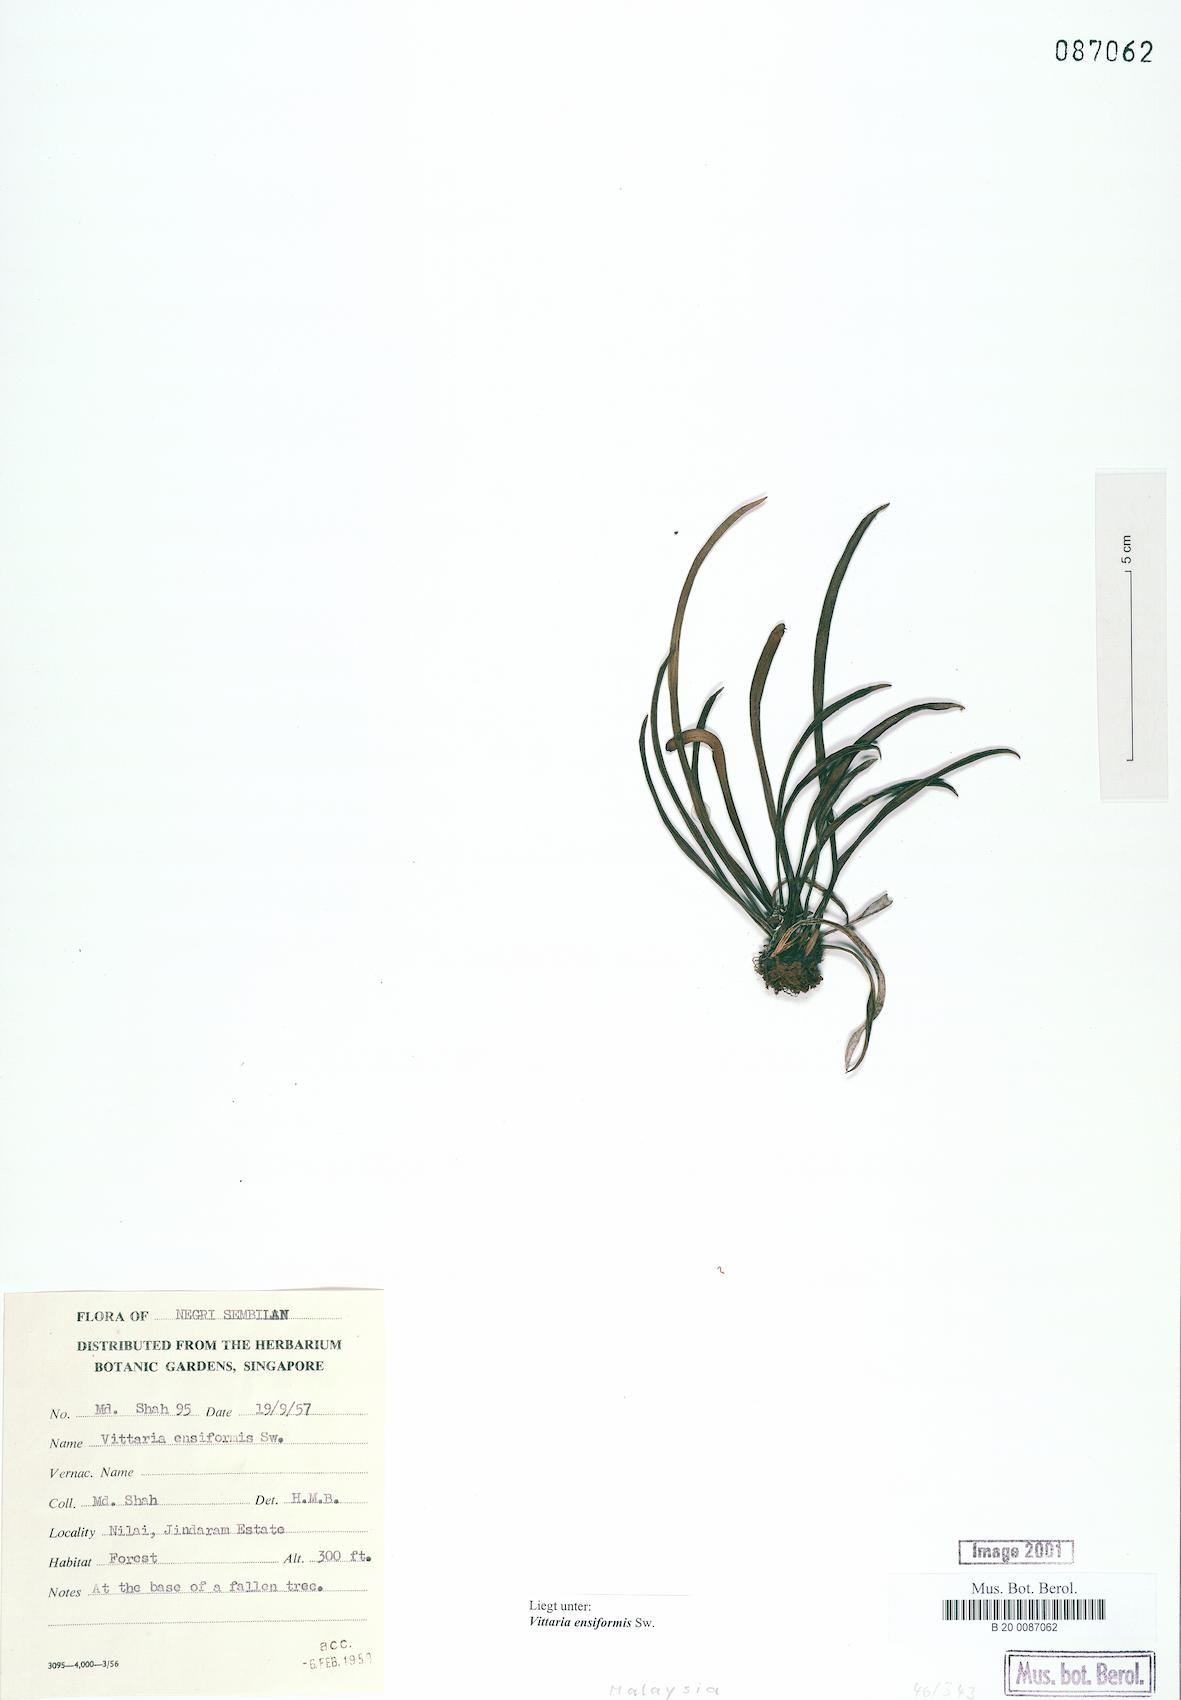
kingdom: Plantae
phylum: Tracheophyta
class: Polypodiopsida
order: Polypodiales
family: Pteridaceae
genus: Haplopteris
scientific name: Haplopteris ensiformis
